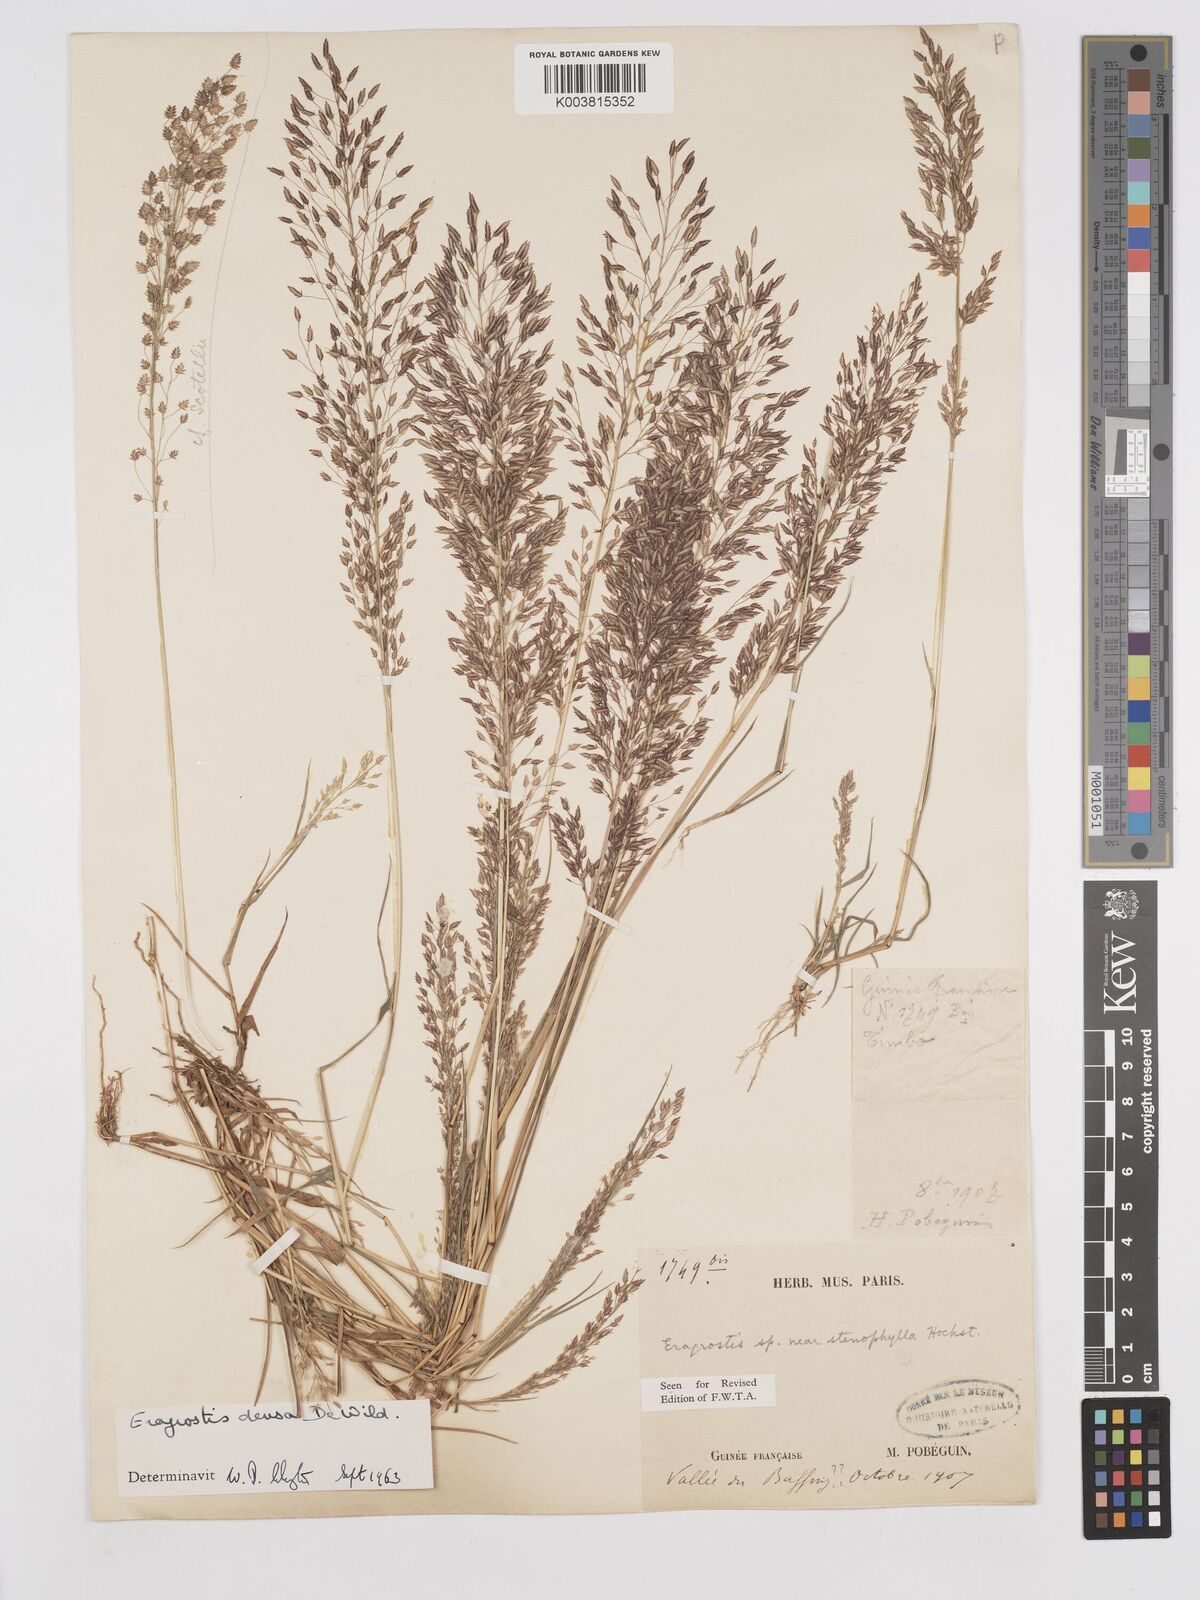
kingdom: Plantae
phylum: Tracheophyta
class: Liliopsida
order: Poales
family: Poaceae
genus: Eragrostis
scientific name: Eragrostis welwitschii
